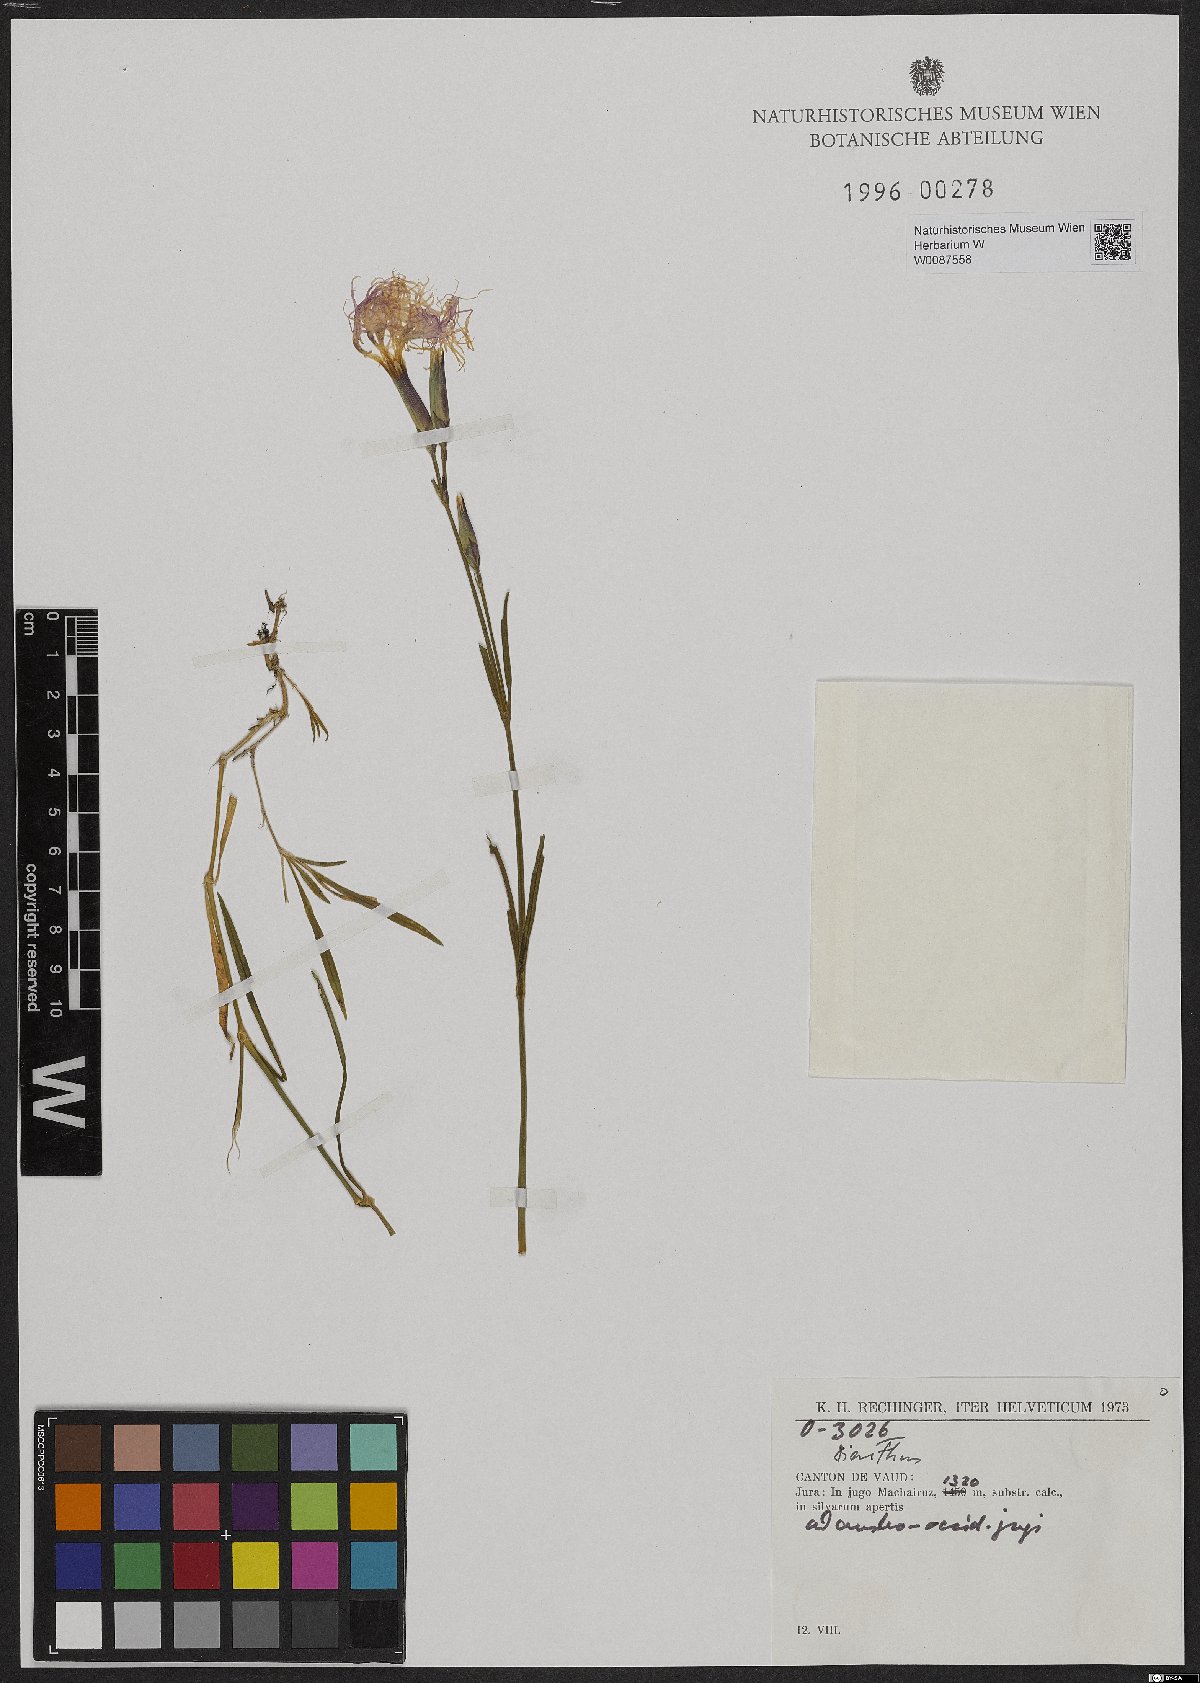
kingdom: Plantae
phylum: Tracheophyta
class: Magnoliopsida
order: Caryophyllales
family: Caryophyllaceae
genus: Dianthus
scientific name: Dianthus superbus
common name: Fringed pink
